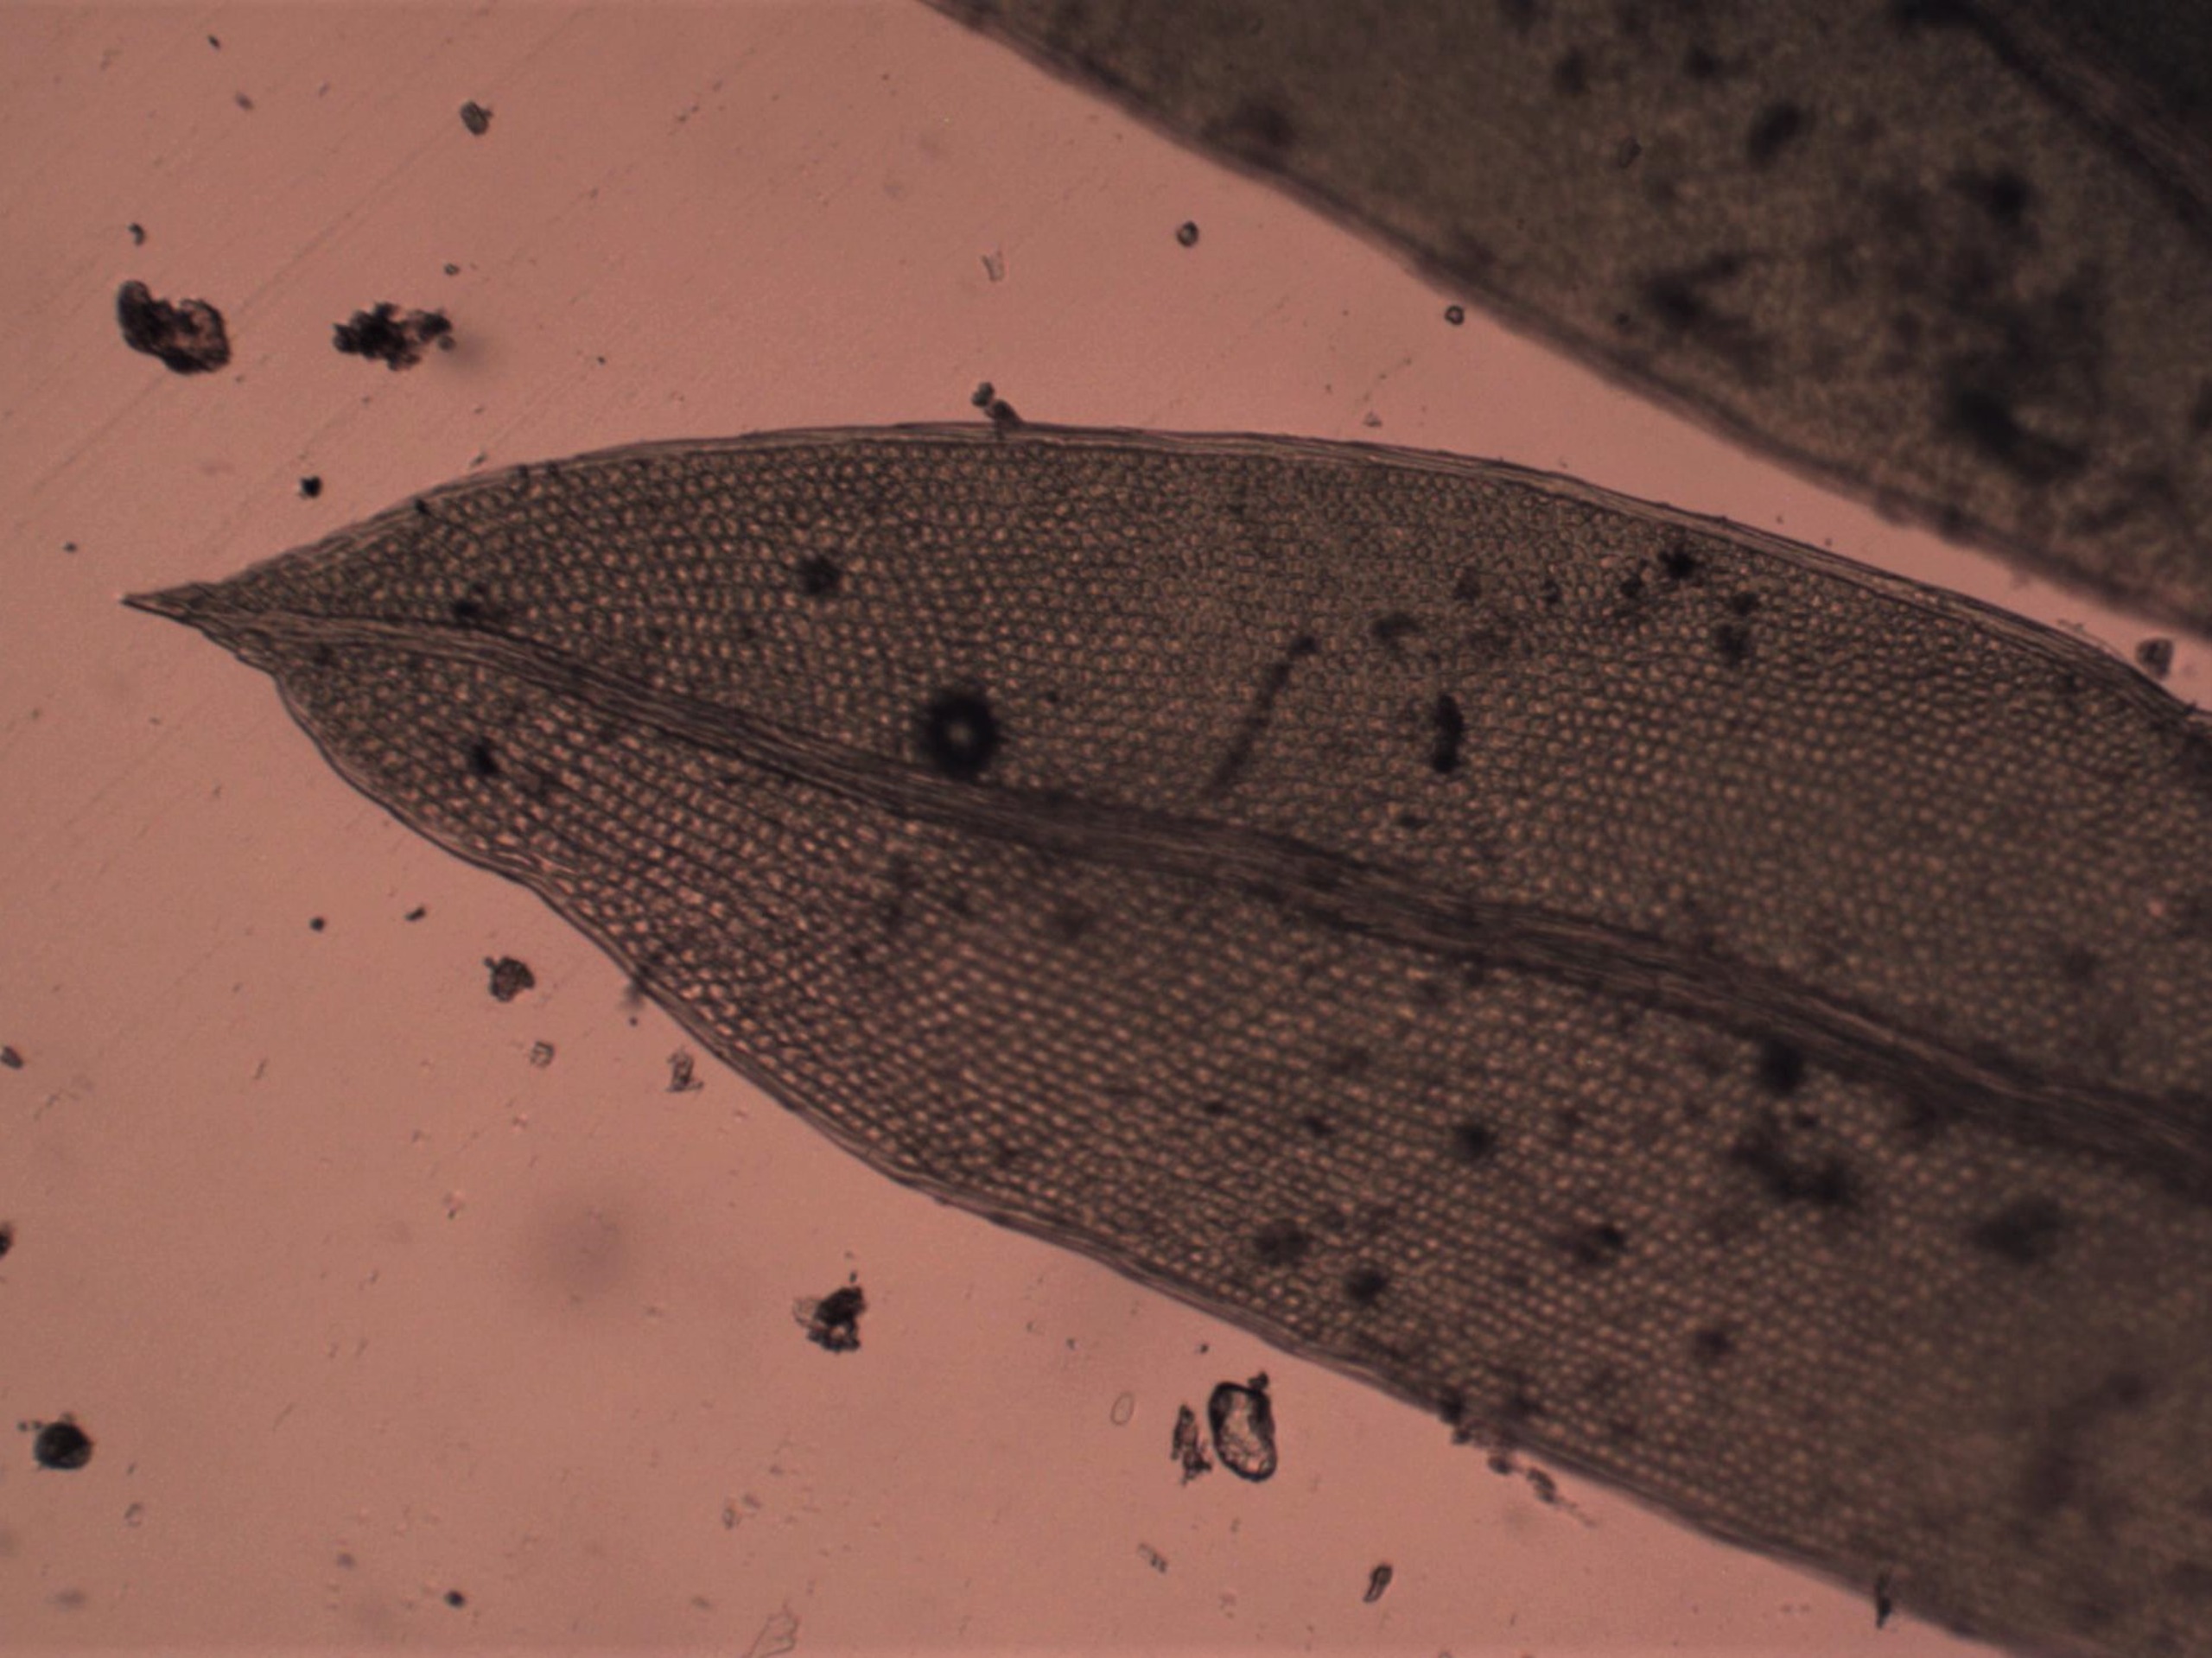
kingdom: Plantae
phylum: Bryophyta
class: Bryopsida
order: Dicranales
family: Fissidentaceae
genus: Fissidens
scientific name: Fissidens bryoides
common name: Top-rademos
